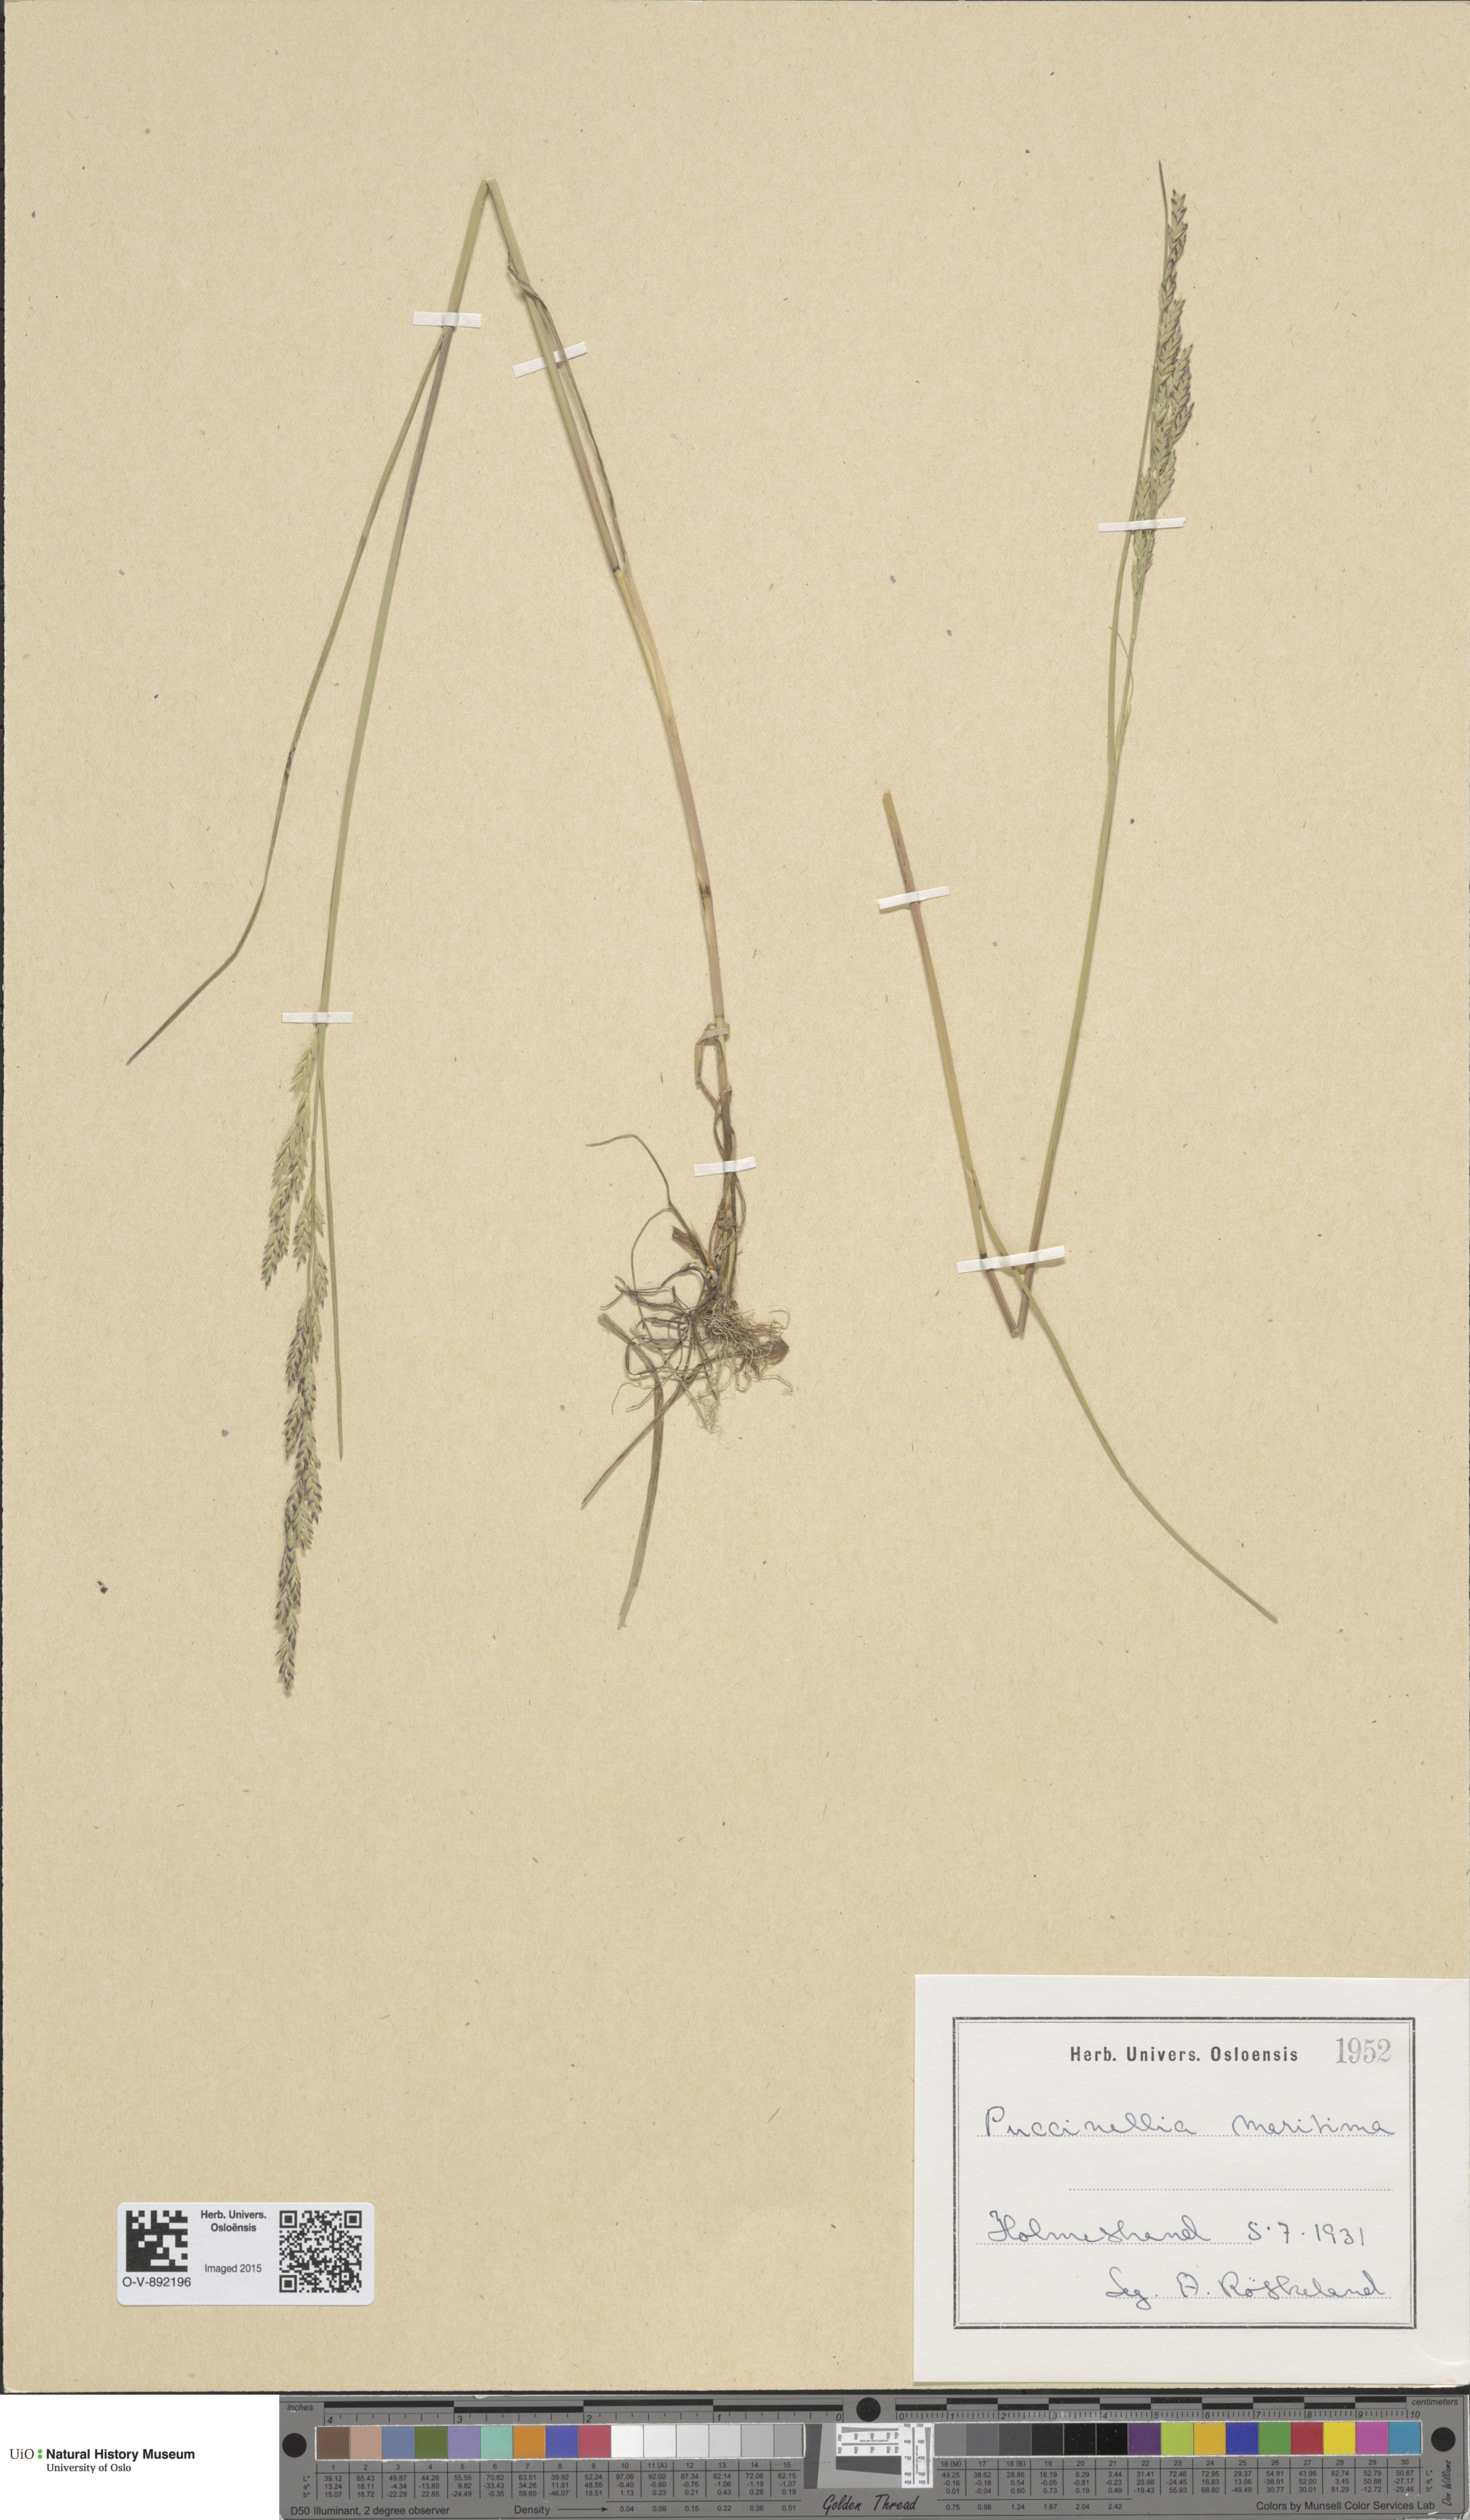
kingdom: Plantae
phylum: Tracheophyta
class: Liliopsida
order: Poales
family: Poaceae
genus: Puccinellia
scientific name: Puccinellia maritima
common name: Common saltmarsh grass
